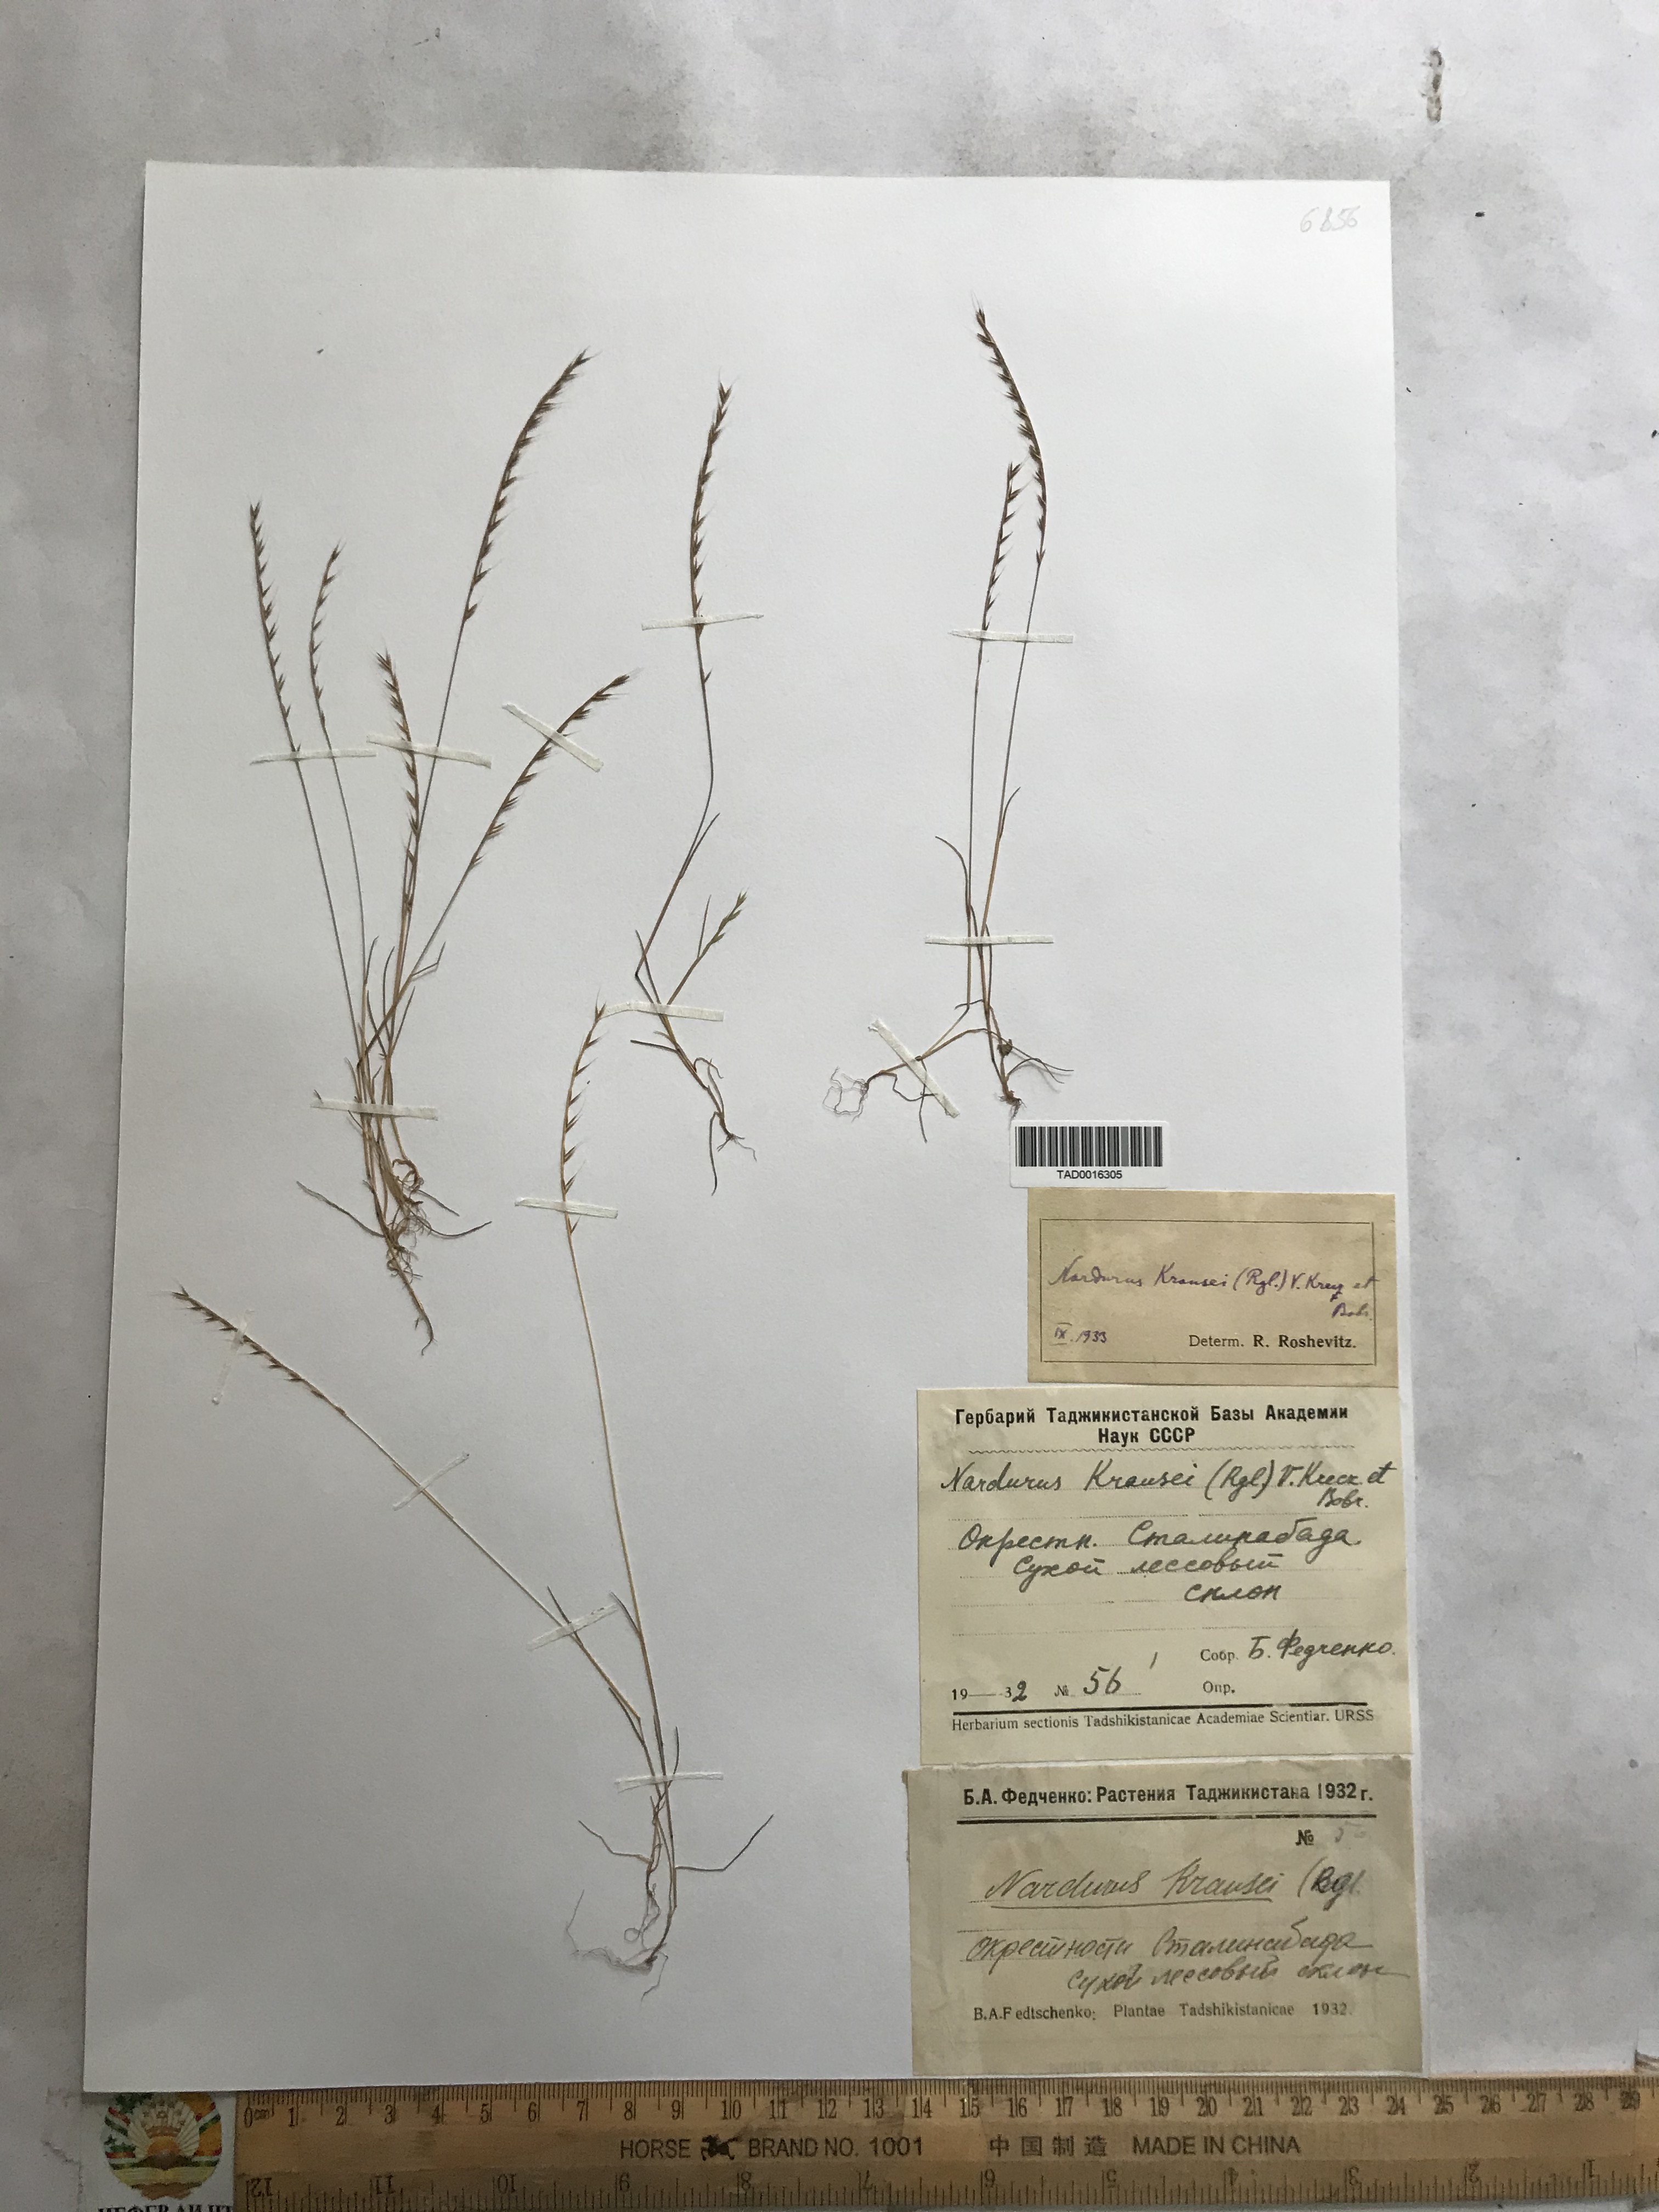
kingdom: Plantae
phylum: Tracheophyta
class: Liliopsida
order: Poales
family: Poaceae
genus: Festuca
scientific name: Festuca maritima
